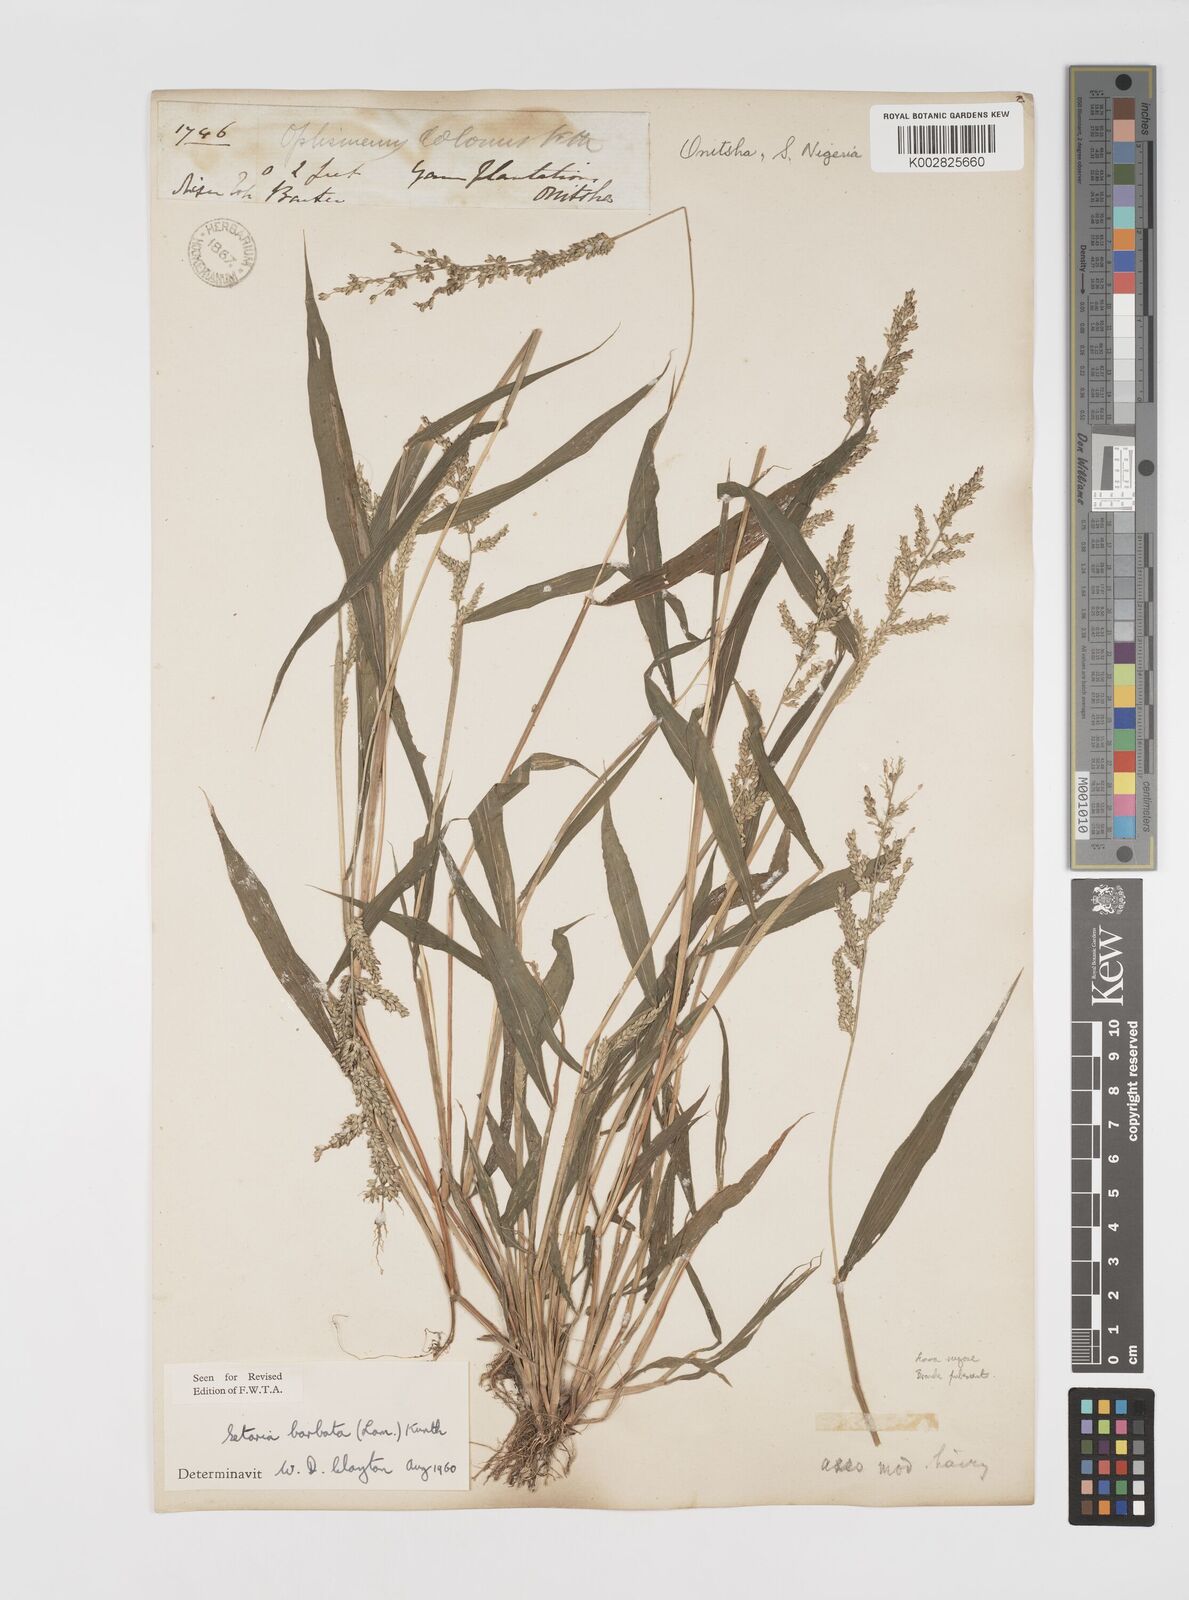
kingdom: Plantae
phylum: Tracheophyta
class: Liliopsida
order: Poales
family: Poaceae
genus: Setaria
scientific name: Setaria barbata
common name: East indian bristlegrass
